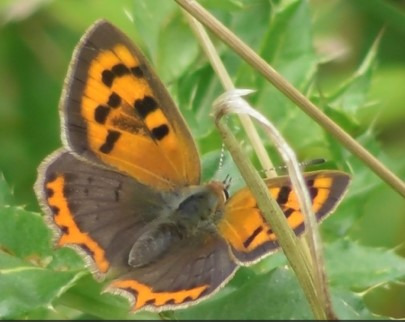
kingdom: Animalia
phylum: Arthropoda
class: Insecta
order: Lepidoptera
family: Lycaenidae
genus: Lycaena
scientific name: Lycaena phlaeas
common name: Lille ildfugl
